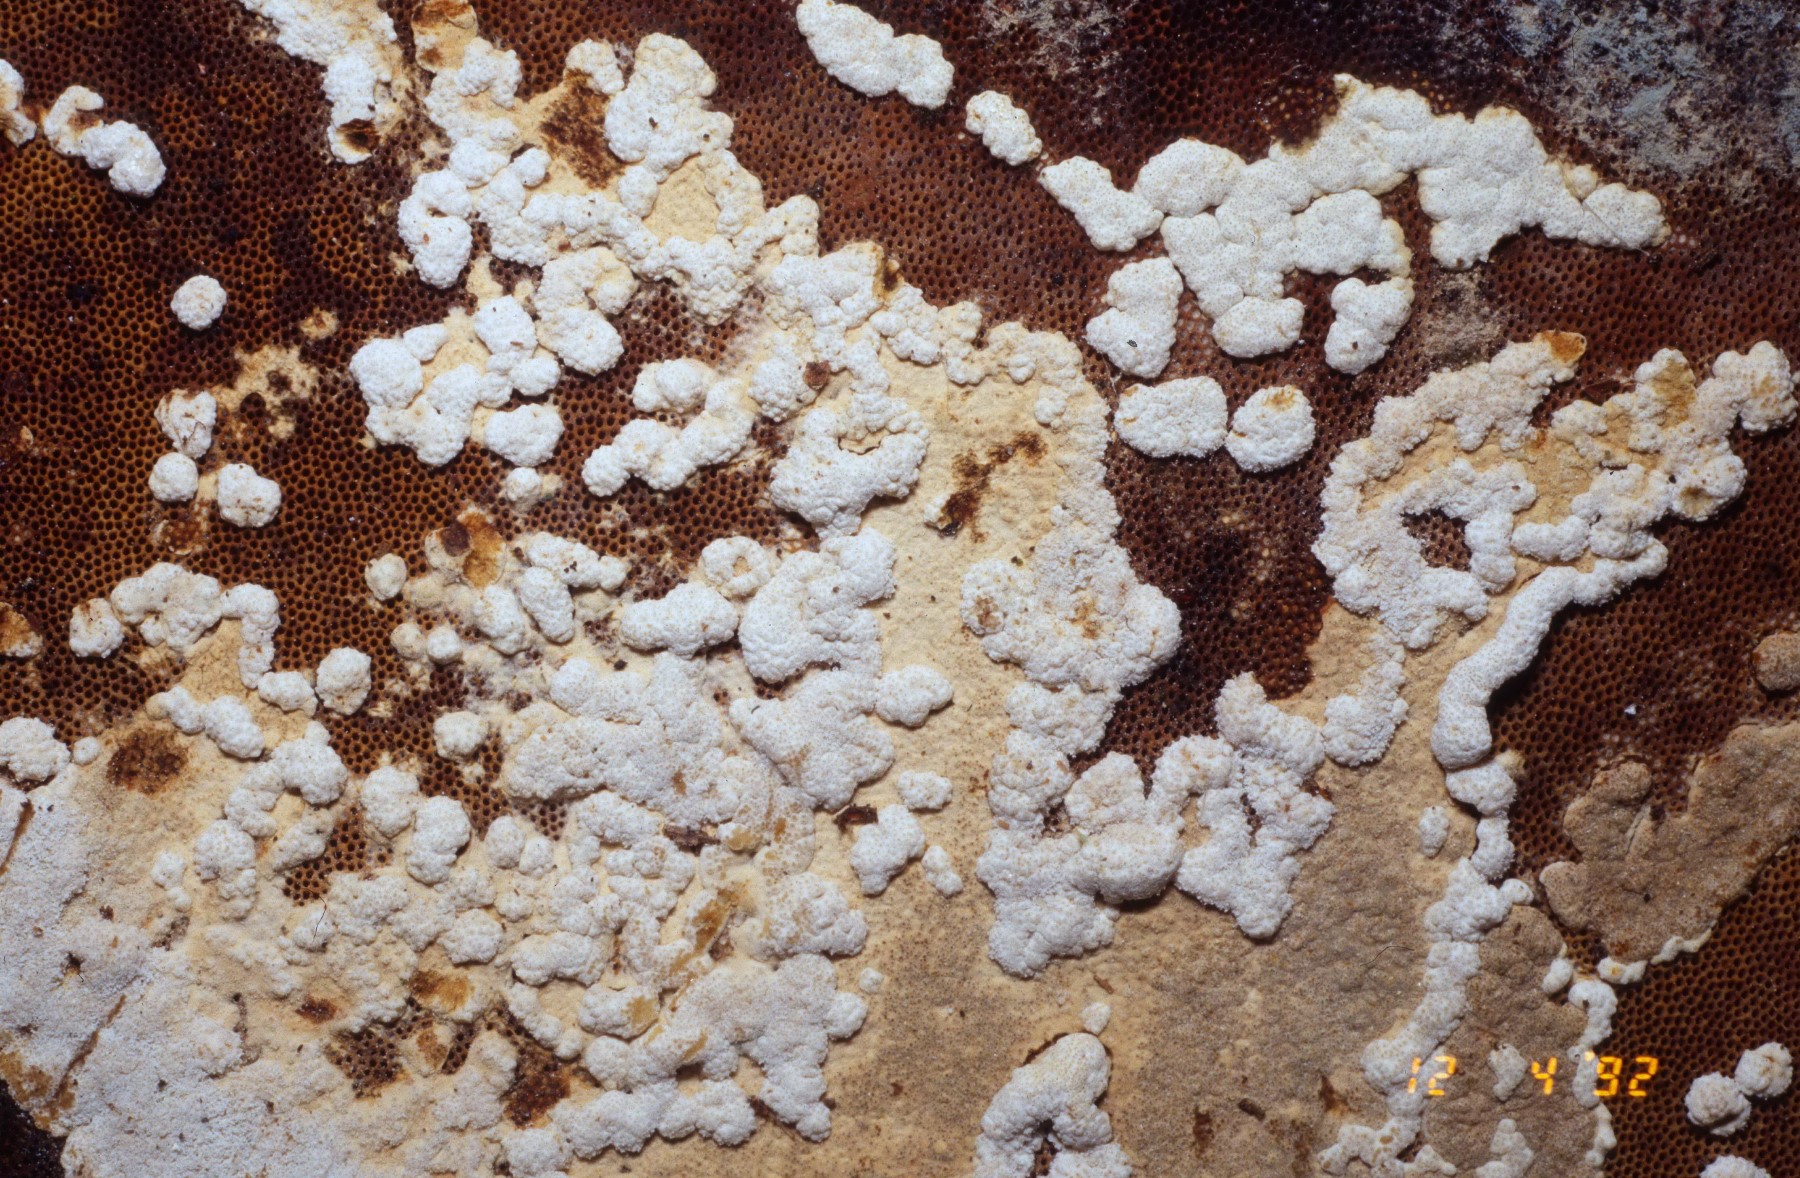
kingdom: Fungi
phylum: Ascomycota
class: Sordariomycetes
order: Hypocreales
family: Hypocreaceae
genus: Trichoderma
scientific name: Trichoderma pulvinatum
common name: snyltende kødkerne
